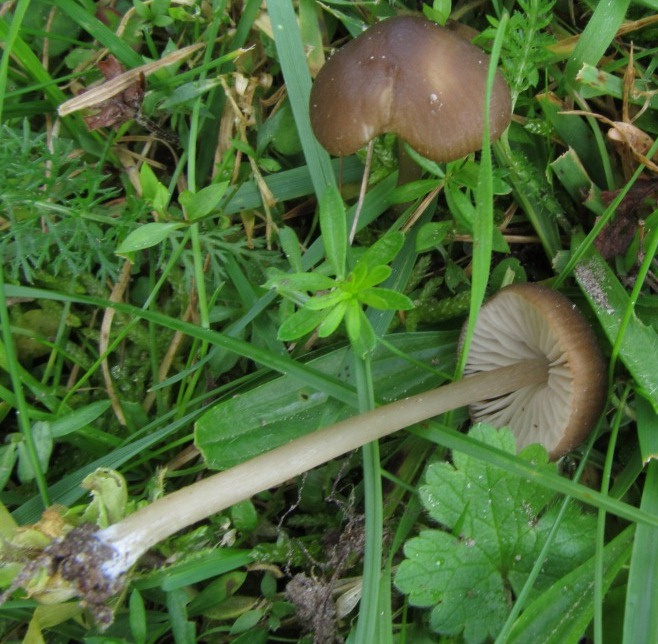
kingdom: Fungi
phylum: Basidiomycota
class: Agaricomycetes
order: Agaricales
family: Entolomataceae
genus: Entoloma
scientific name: Entoloma
